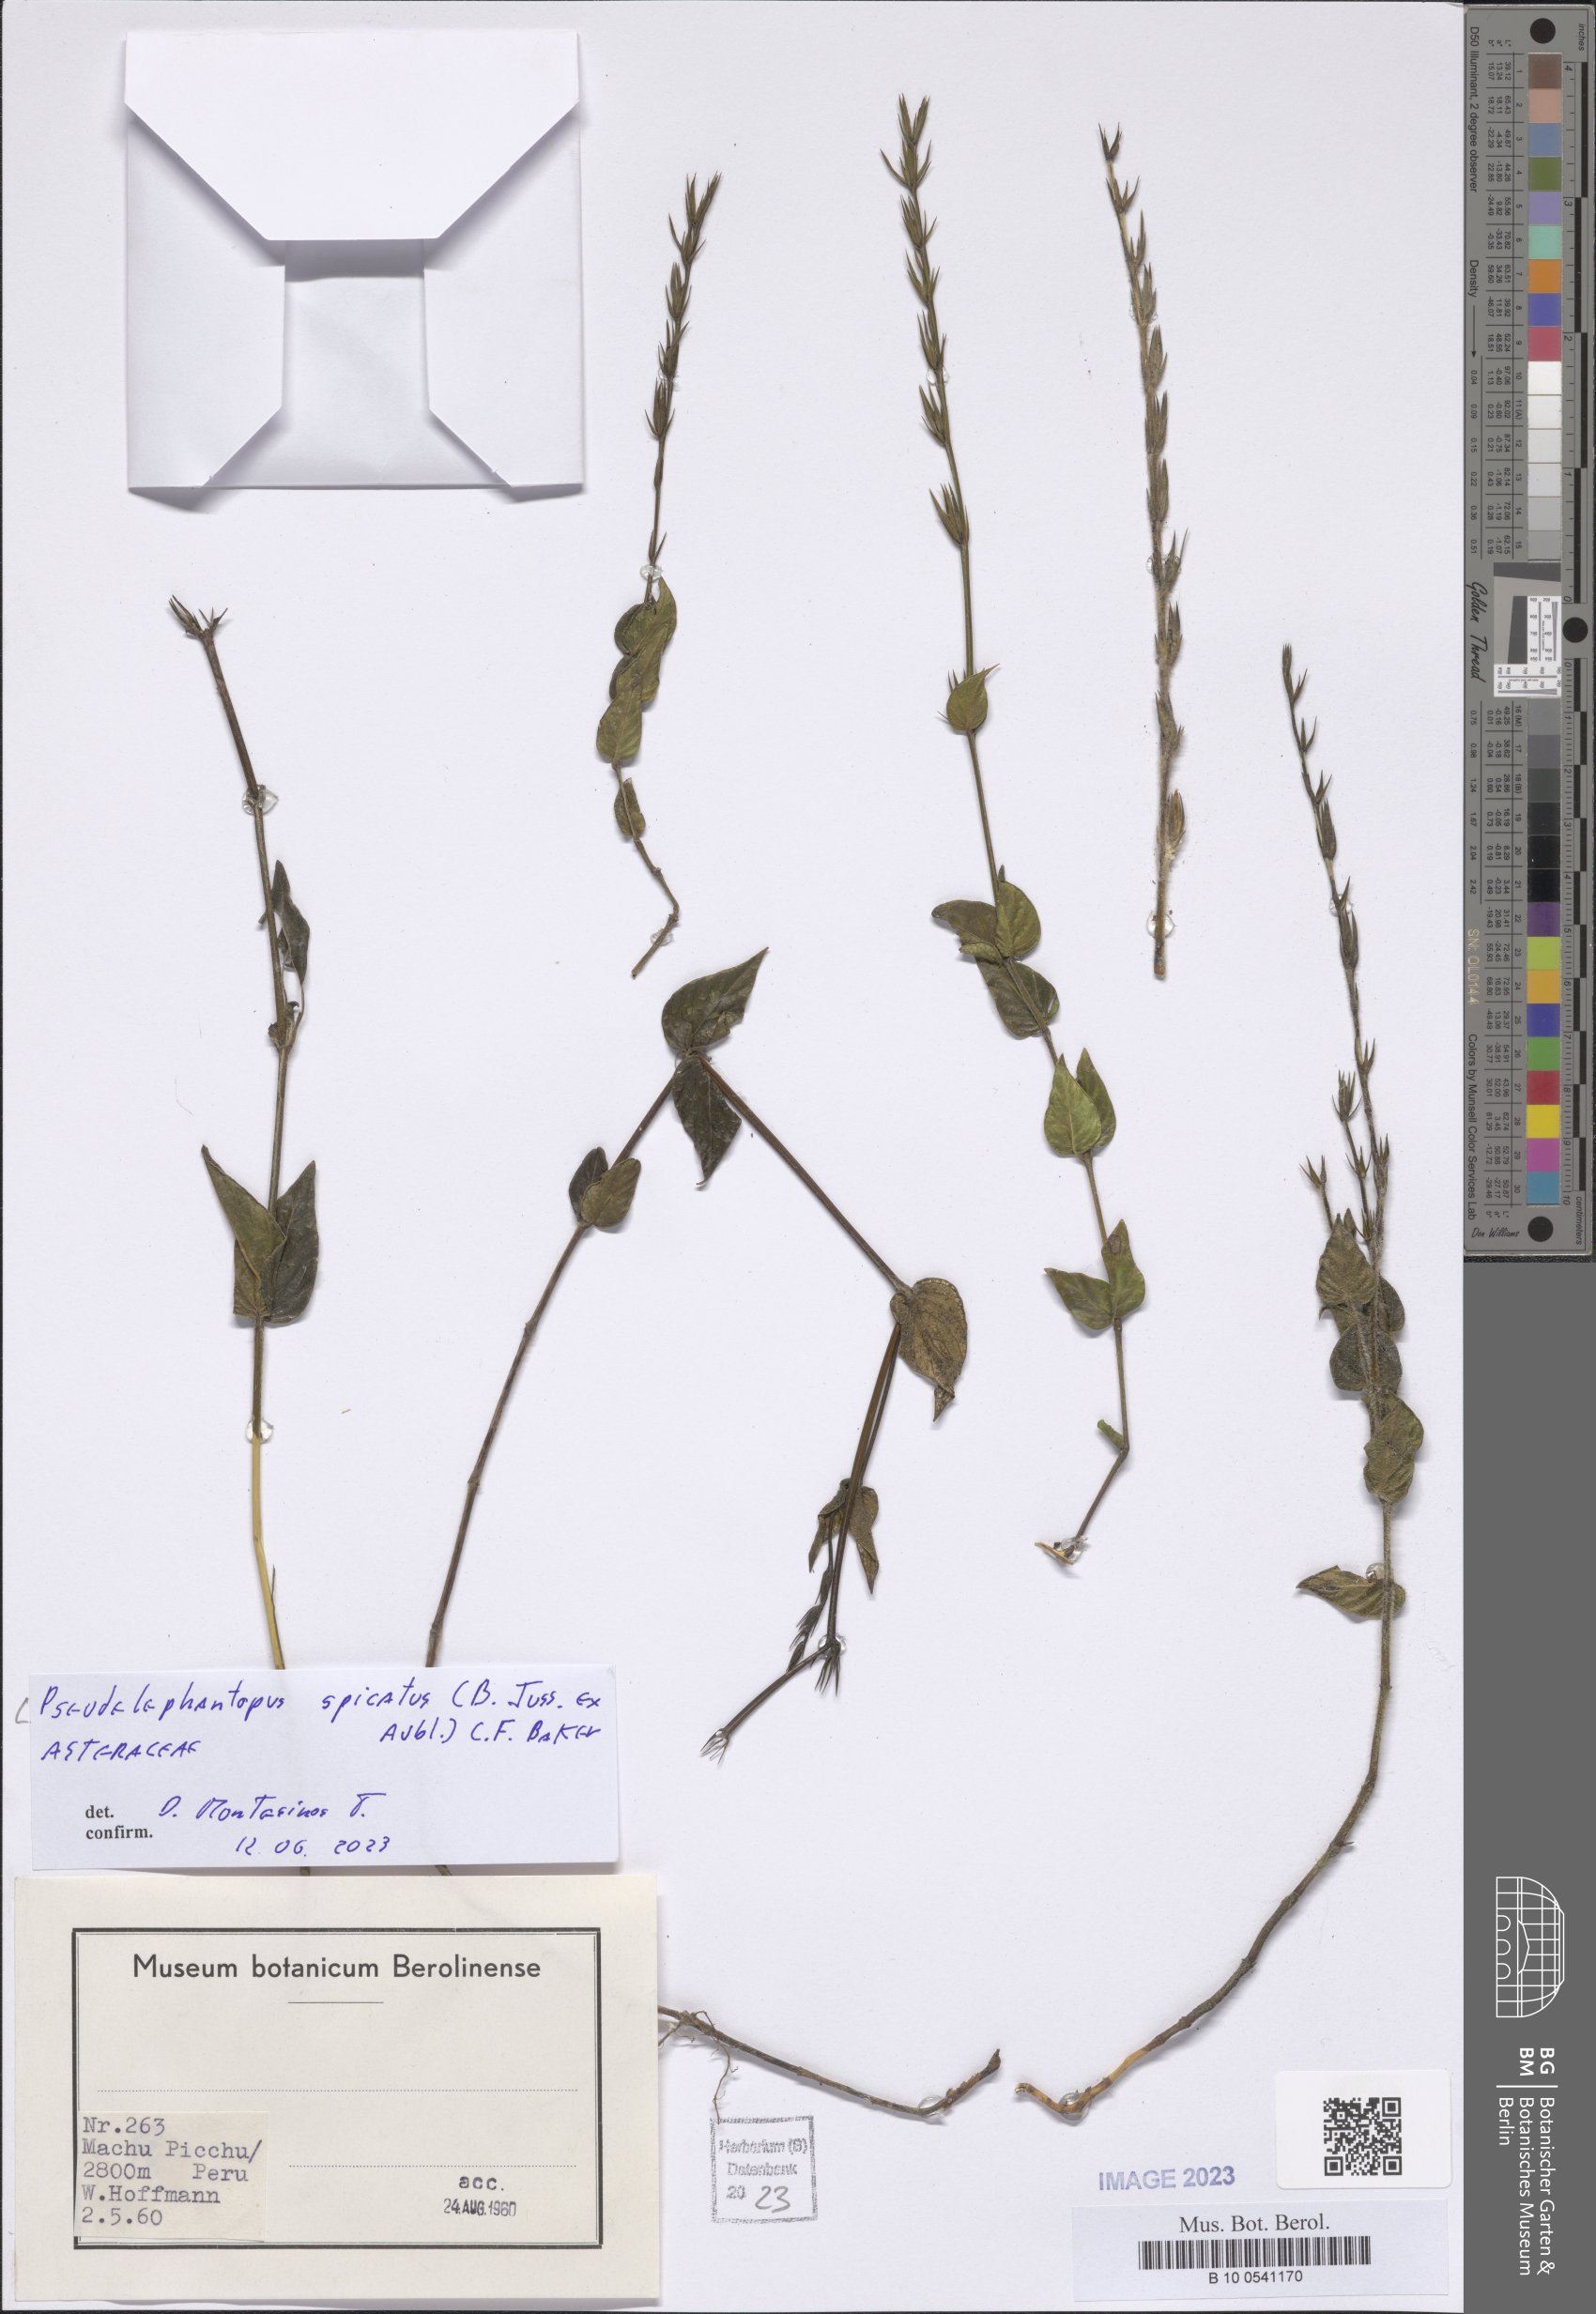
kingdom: Plantae
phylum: Tracheophyta
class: Magnoliopsida
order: Asterales
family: Asteraceae
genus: Pseudelephantopus
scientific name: Pseudelephantopus spicatus
